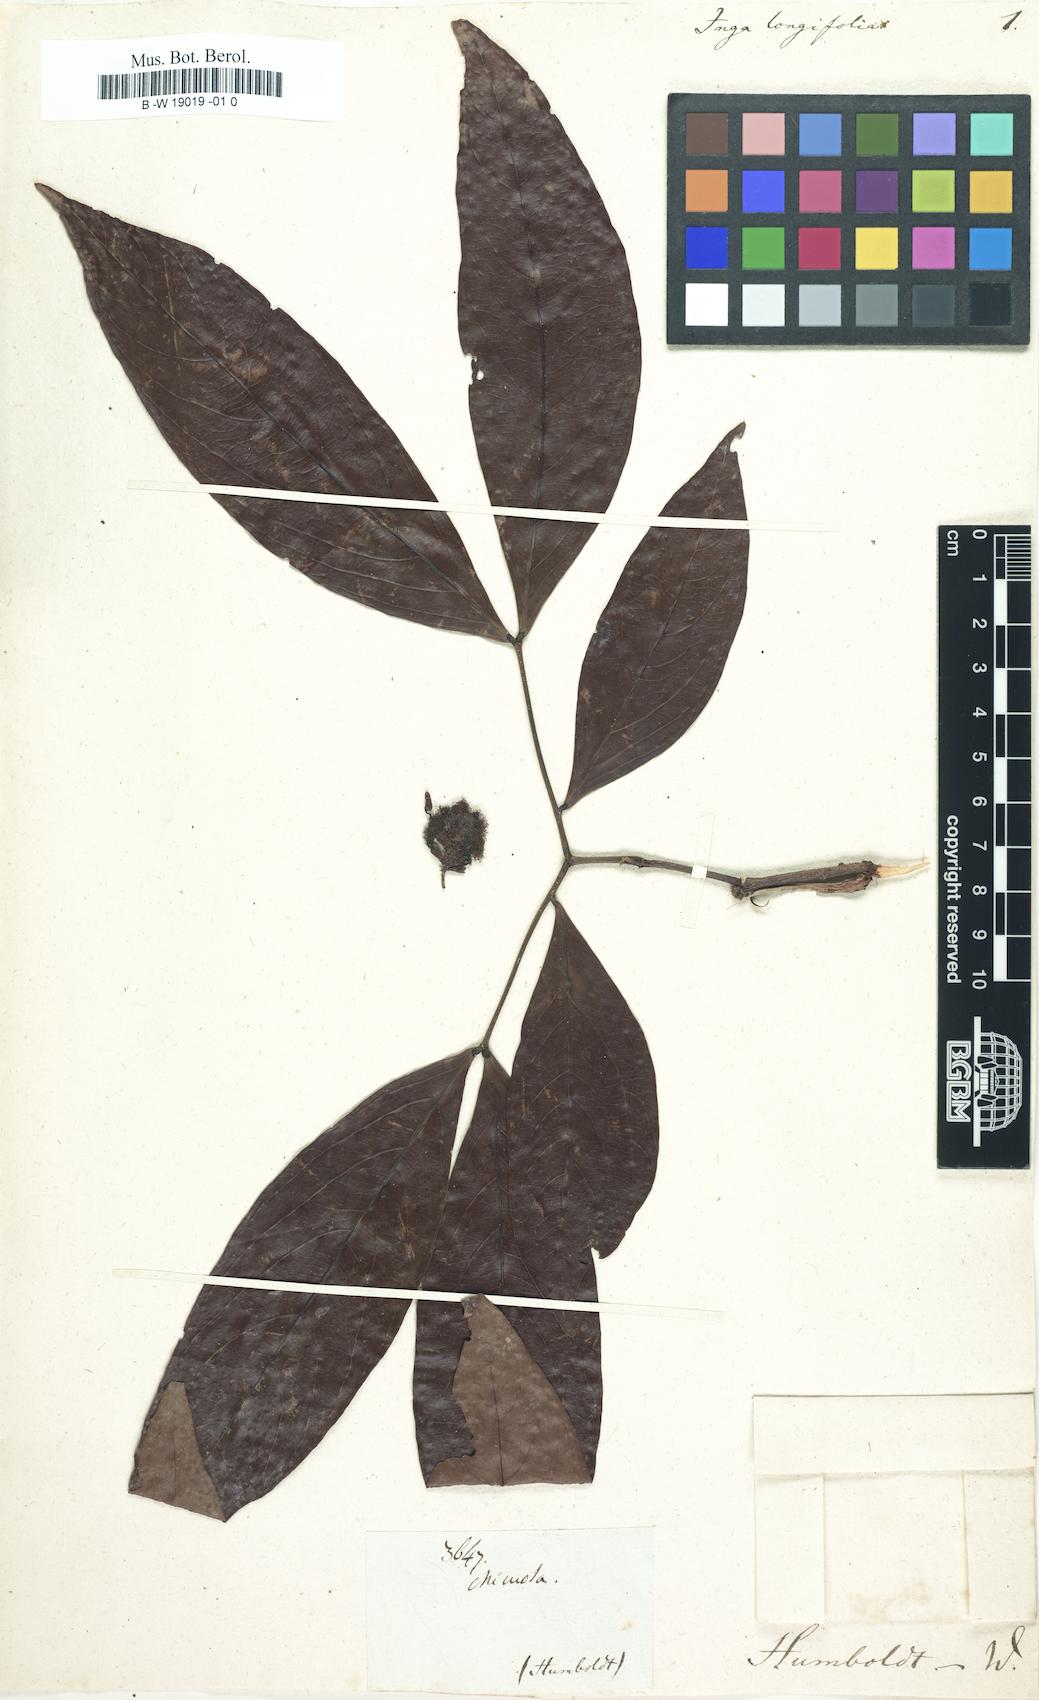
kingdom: Plantae
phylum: Tracheophyta
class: Magnoliopsida
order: Fabales
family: Fabaceae
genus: Zygia
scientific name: Zygia longifolia
